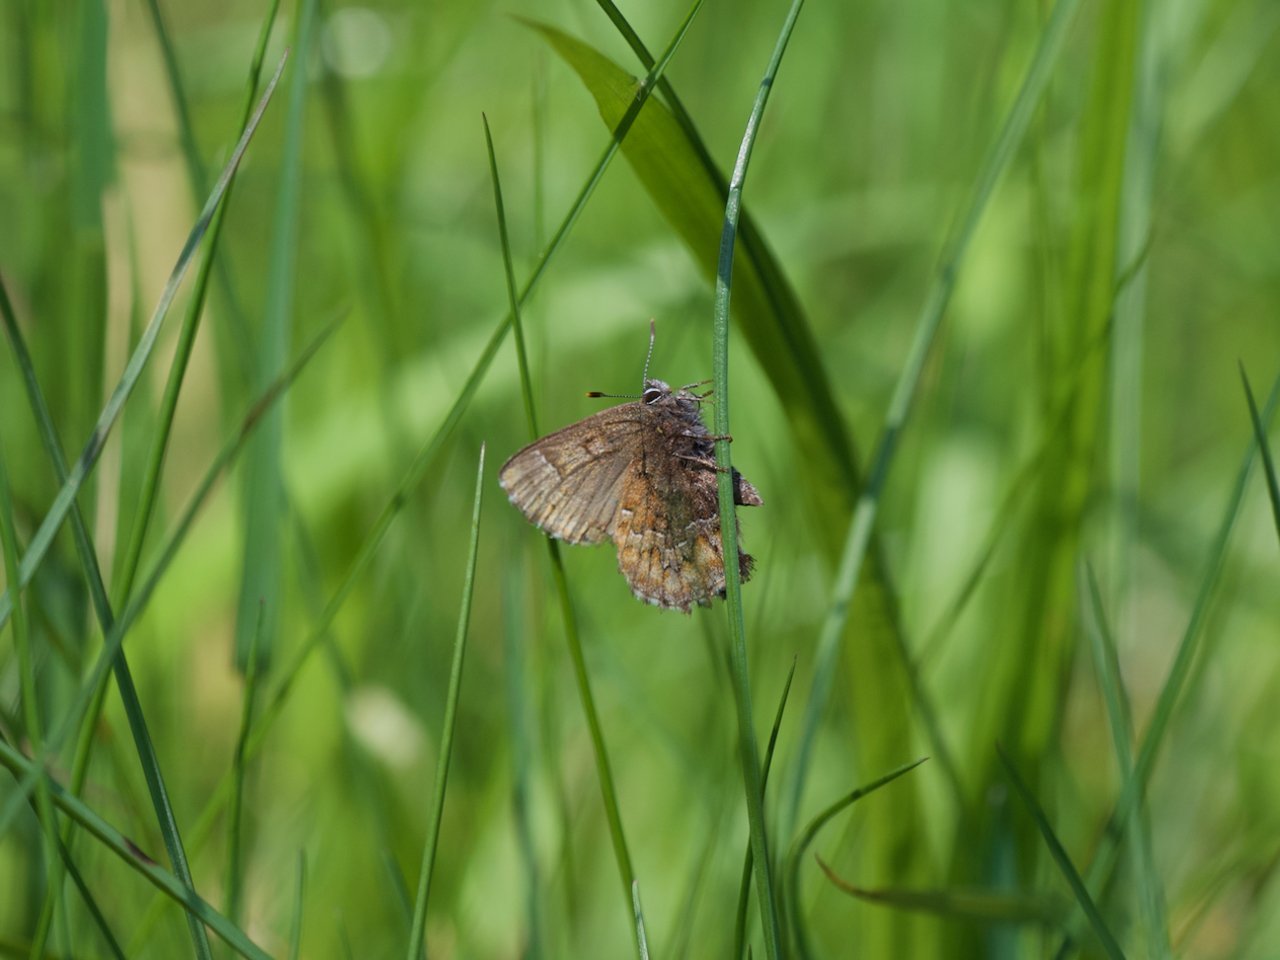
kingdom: Animalia
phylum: Arthropoda
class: Insecta
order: Lepidoptera
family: Lycaenidae
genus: Incisalia
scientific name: Incisalia niphon
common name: Eastern Pine Elfin
